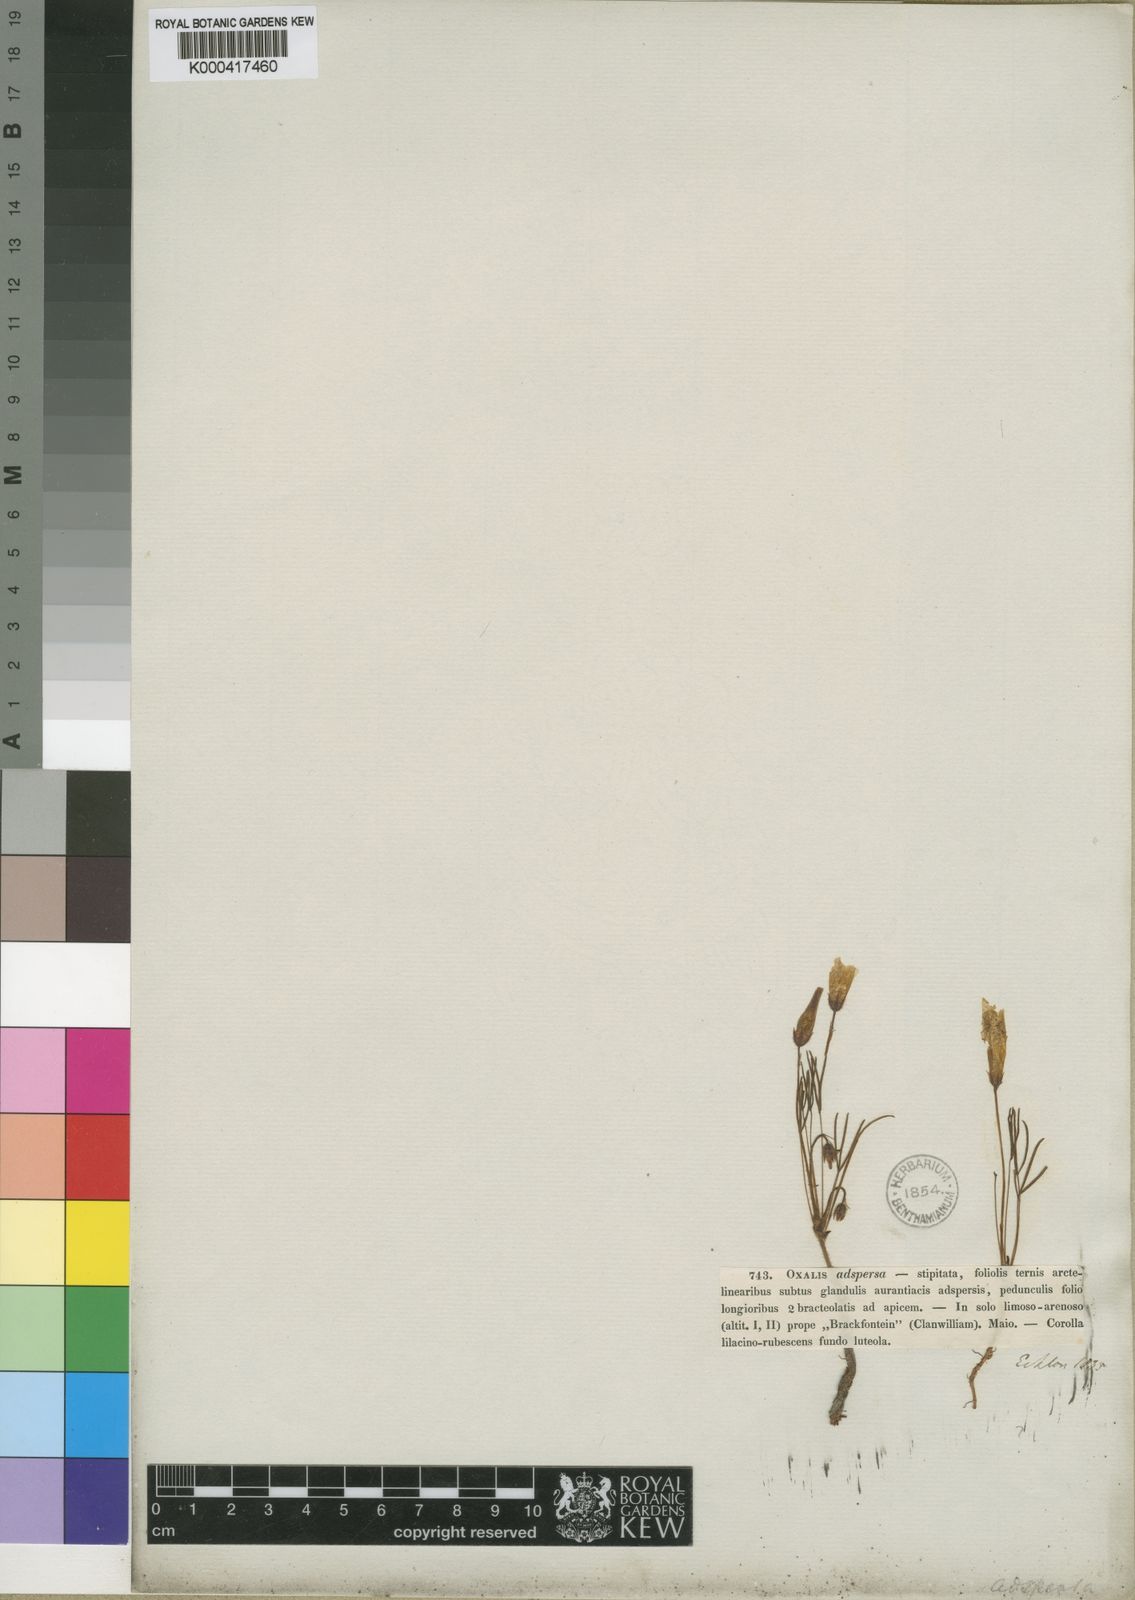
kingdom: Plantae
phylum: Tracheophyta
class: Magnoliopsida
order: Oxalidales
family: Oxalidaceae
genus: Oxalis
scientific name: Oxalis adspersa
